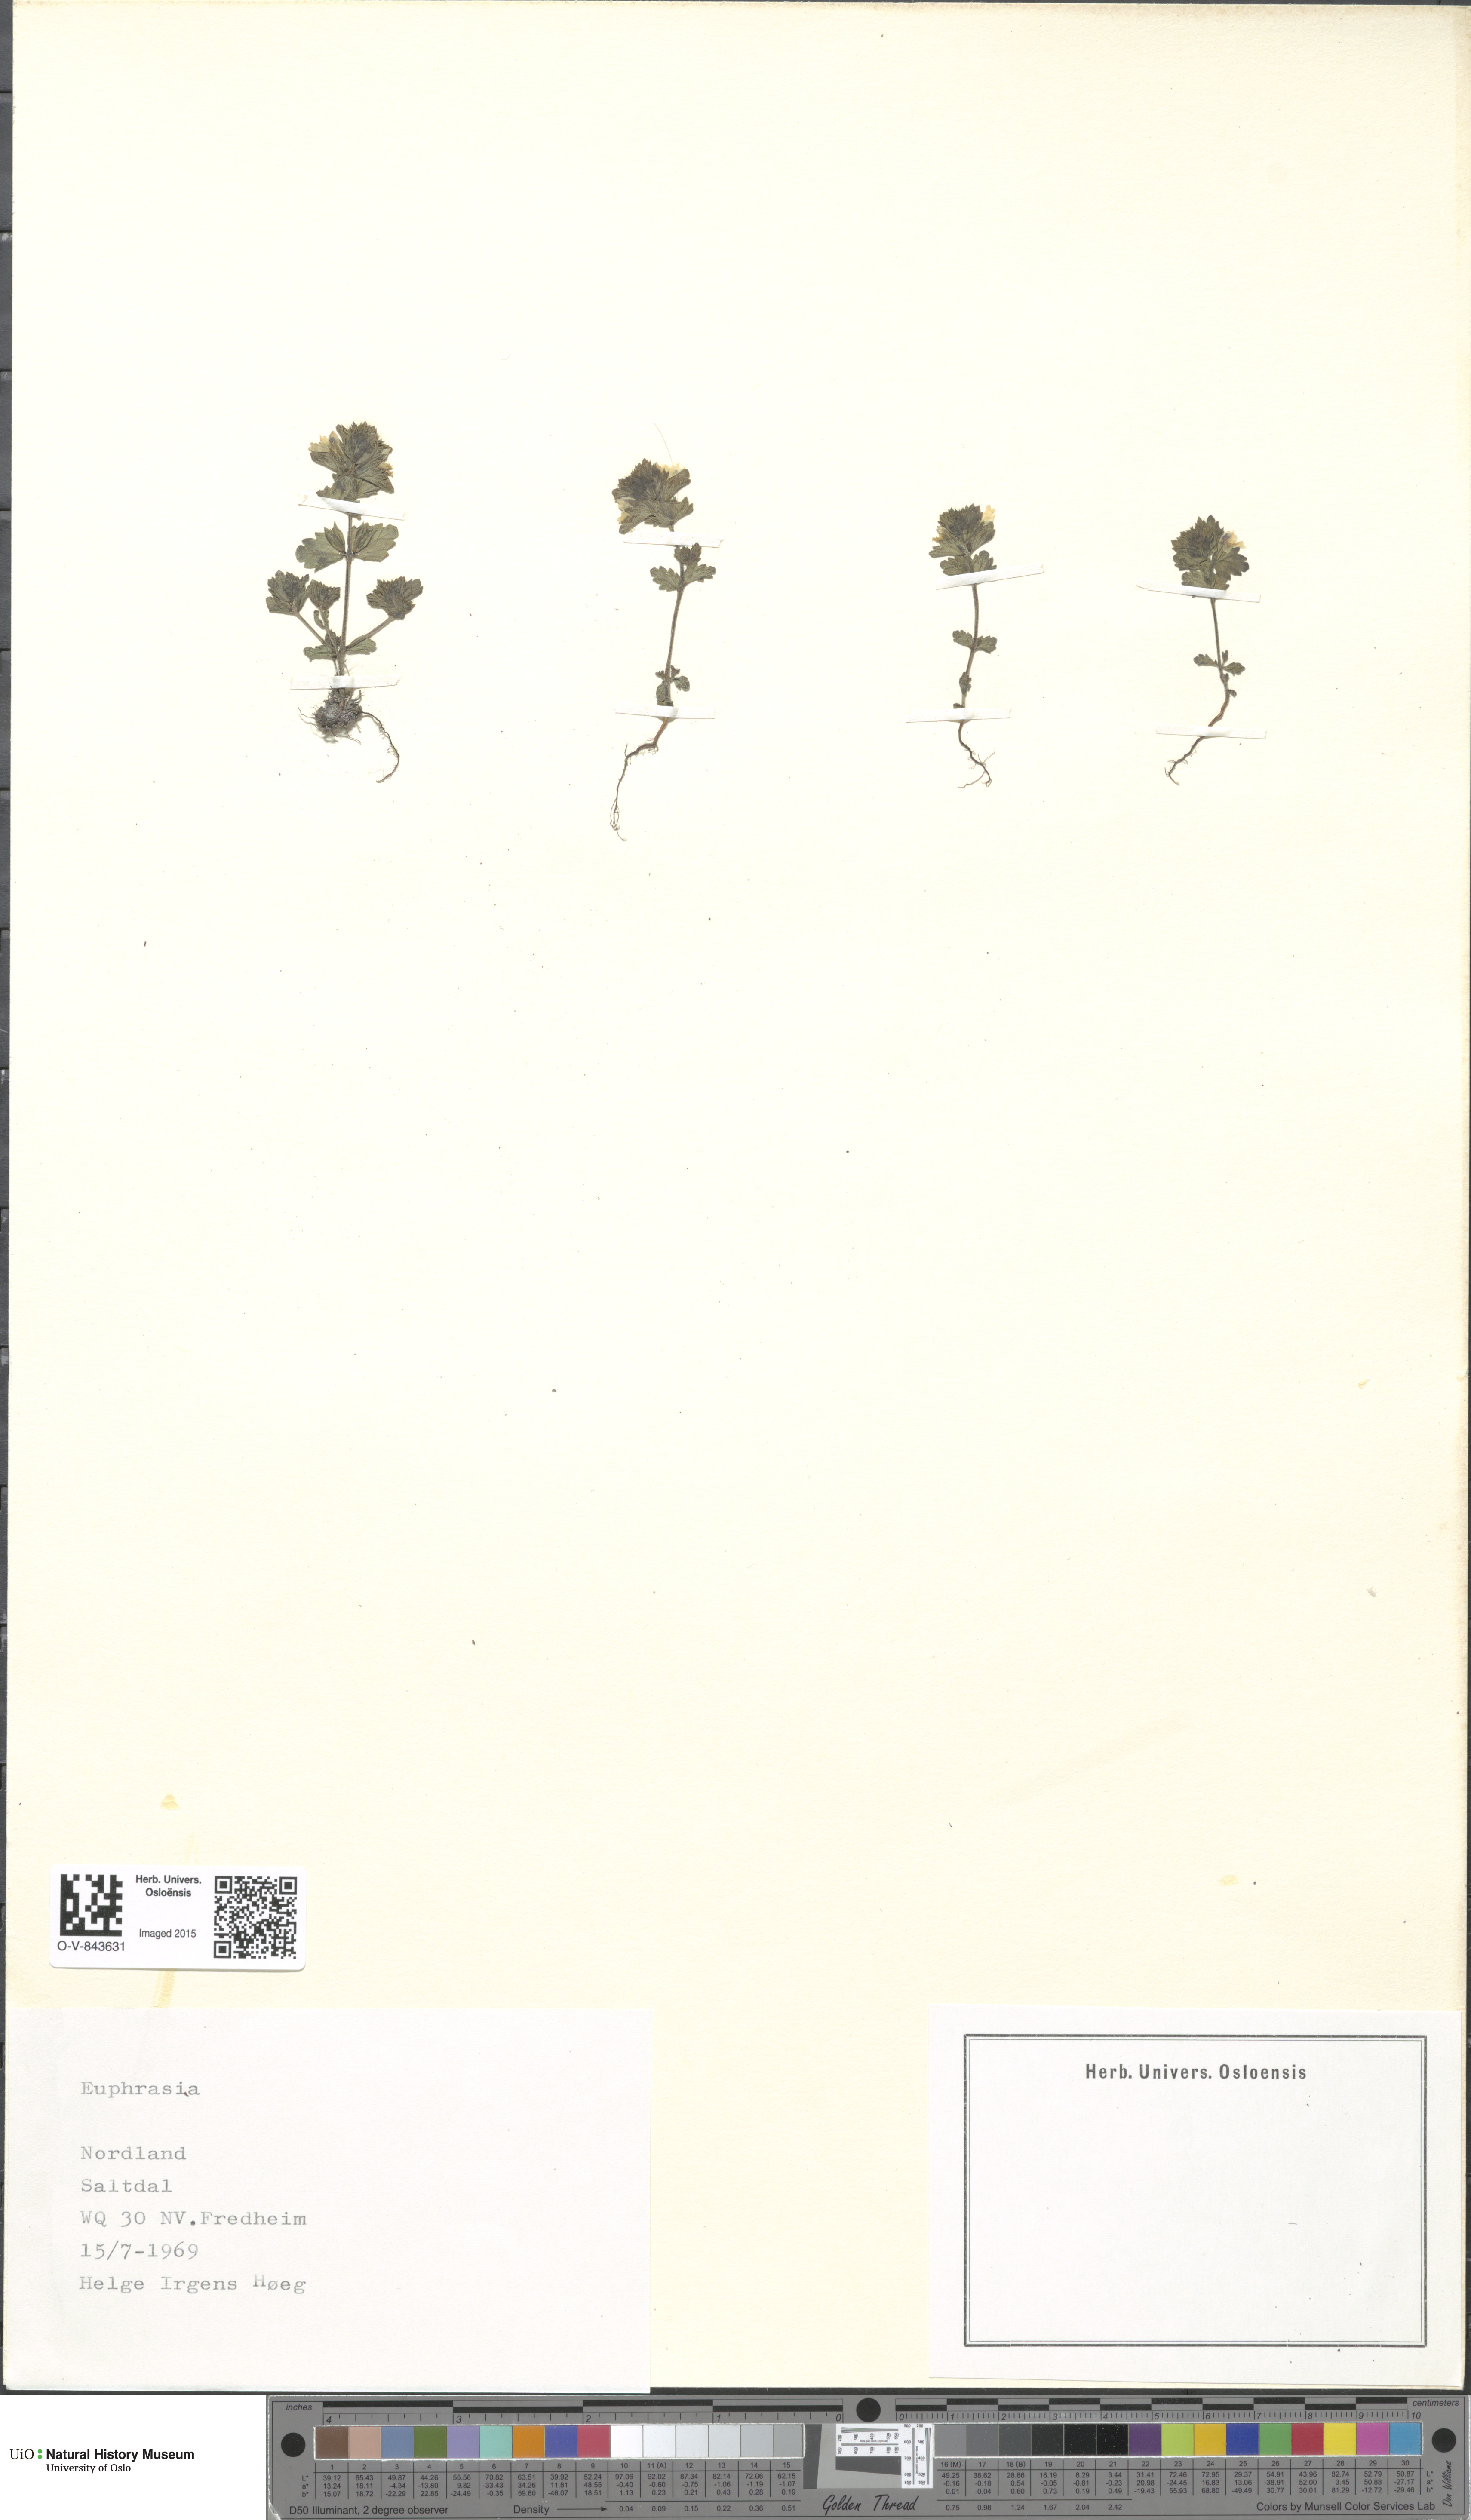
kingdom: Plantae
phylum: Tracheophyta
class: Magnoliopsida
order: Lamiales
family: Orobanchaceae
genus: Euphrasia
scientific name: Euphrasia
